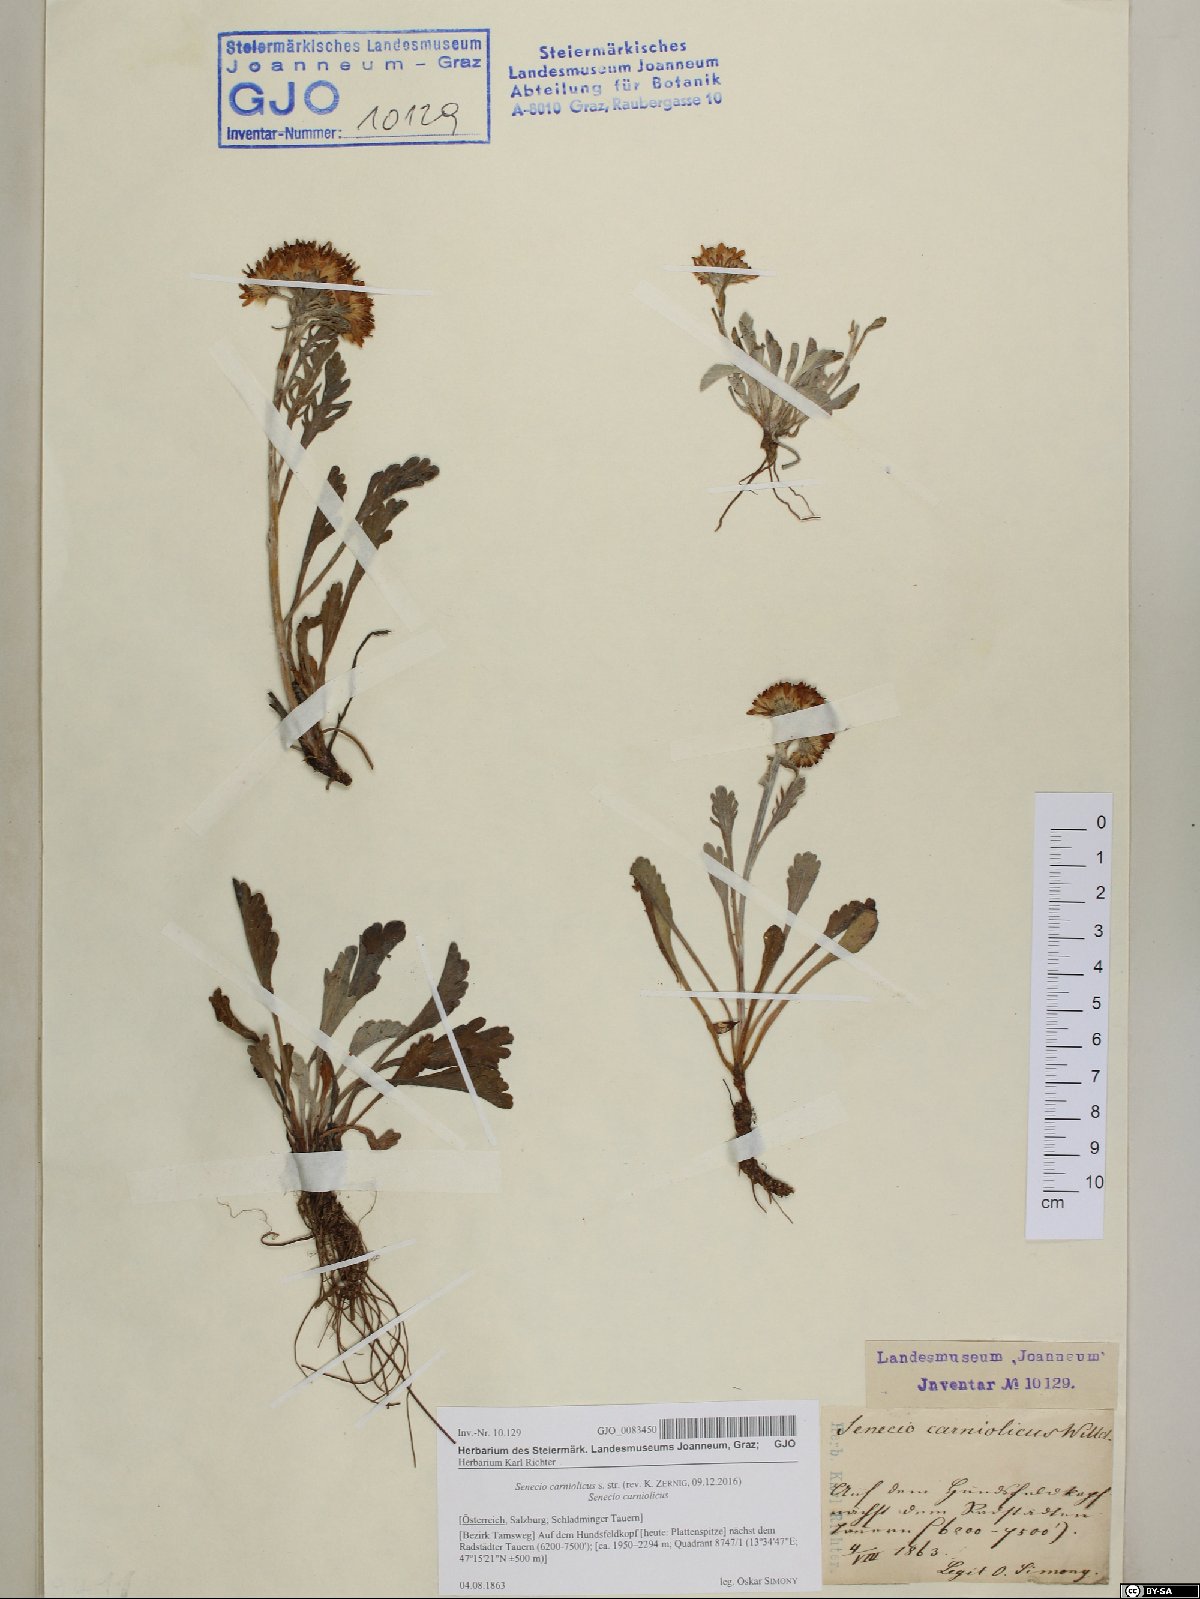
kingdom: Plantae
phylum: Tracheophyta
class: Magnoliopsida
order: Asterales
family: Asteraceae
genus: Jacobaea
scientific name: Jacobaea carniolica
